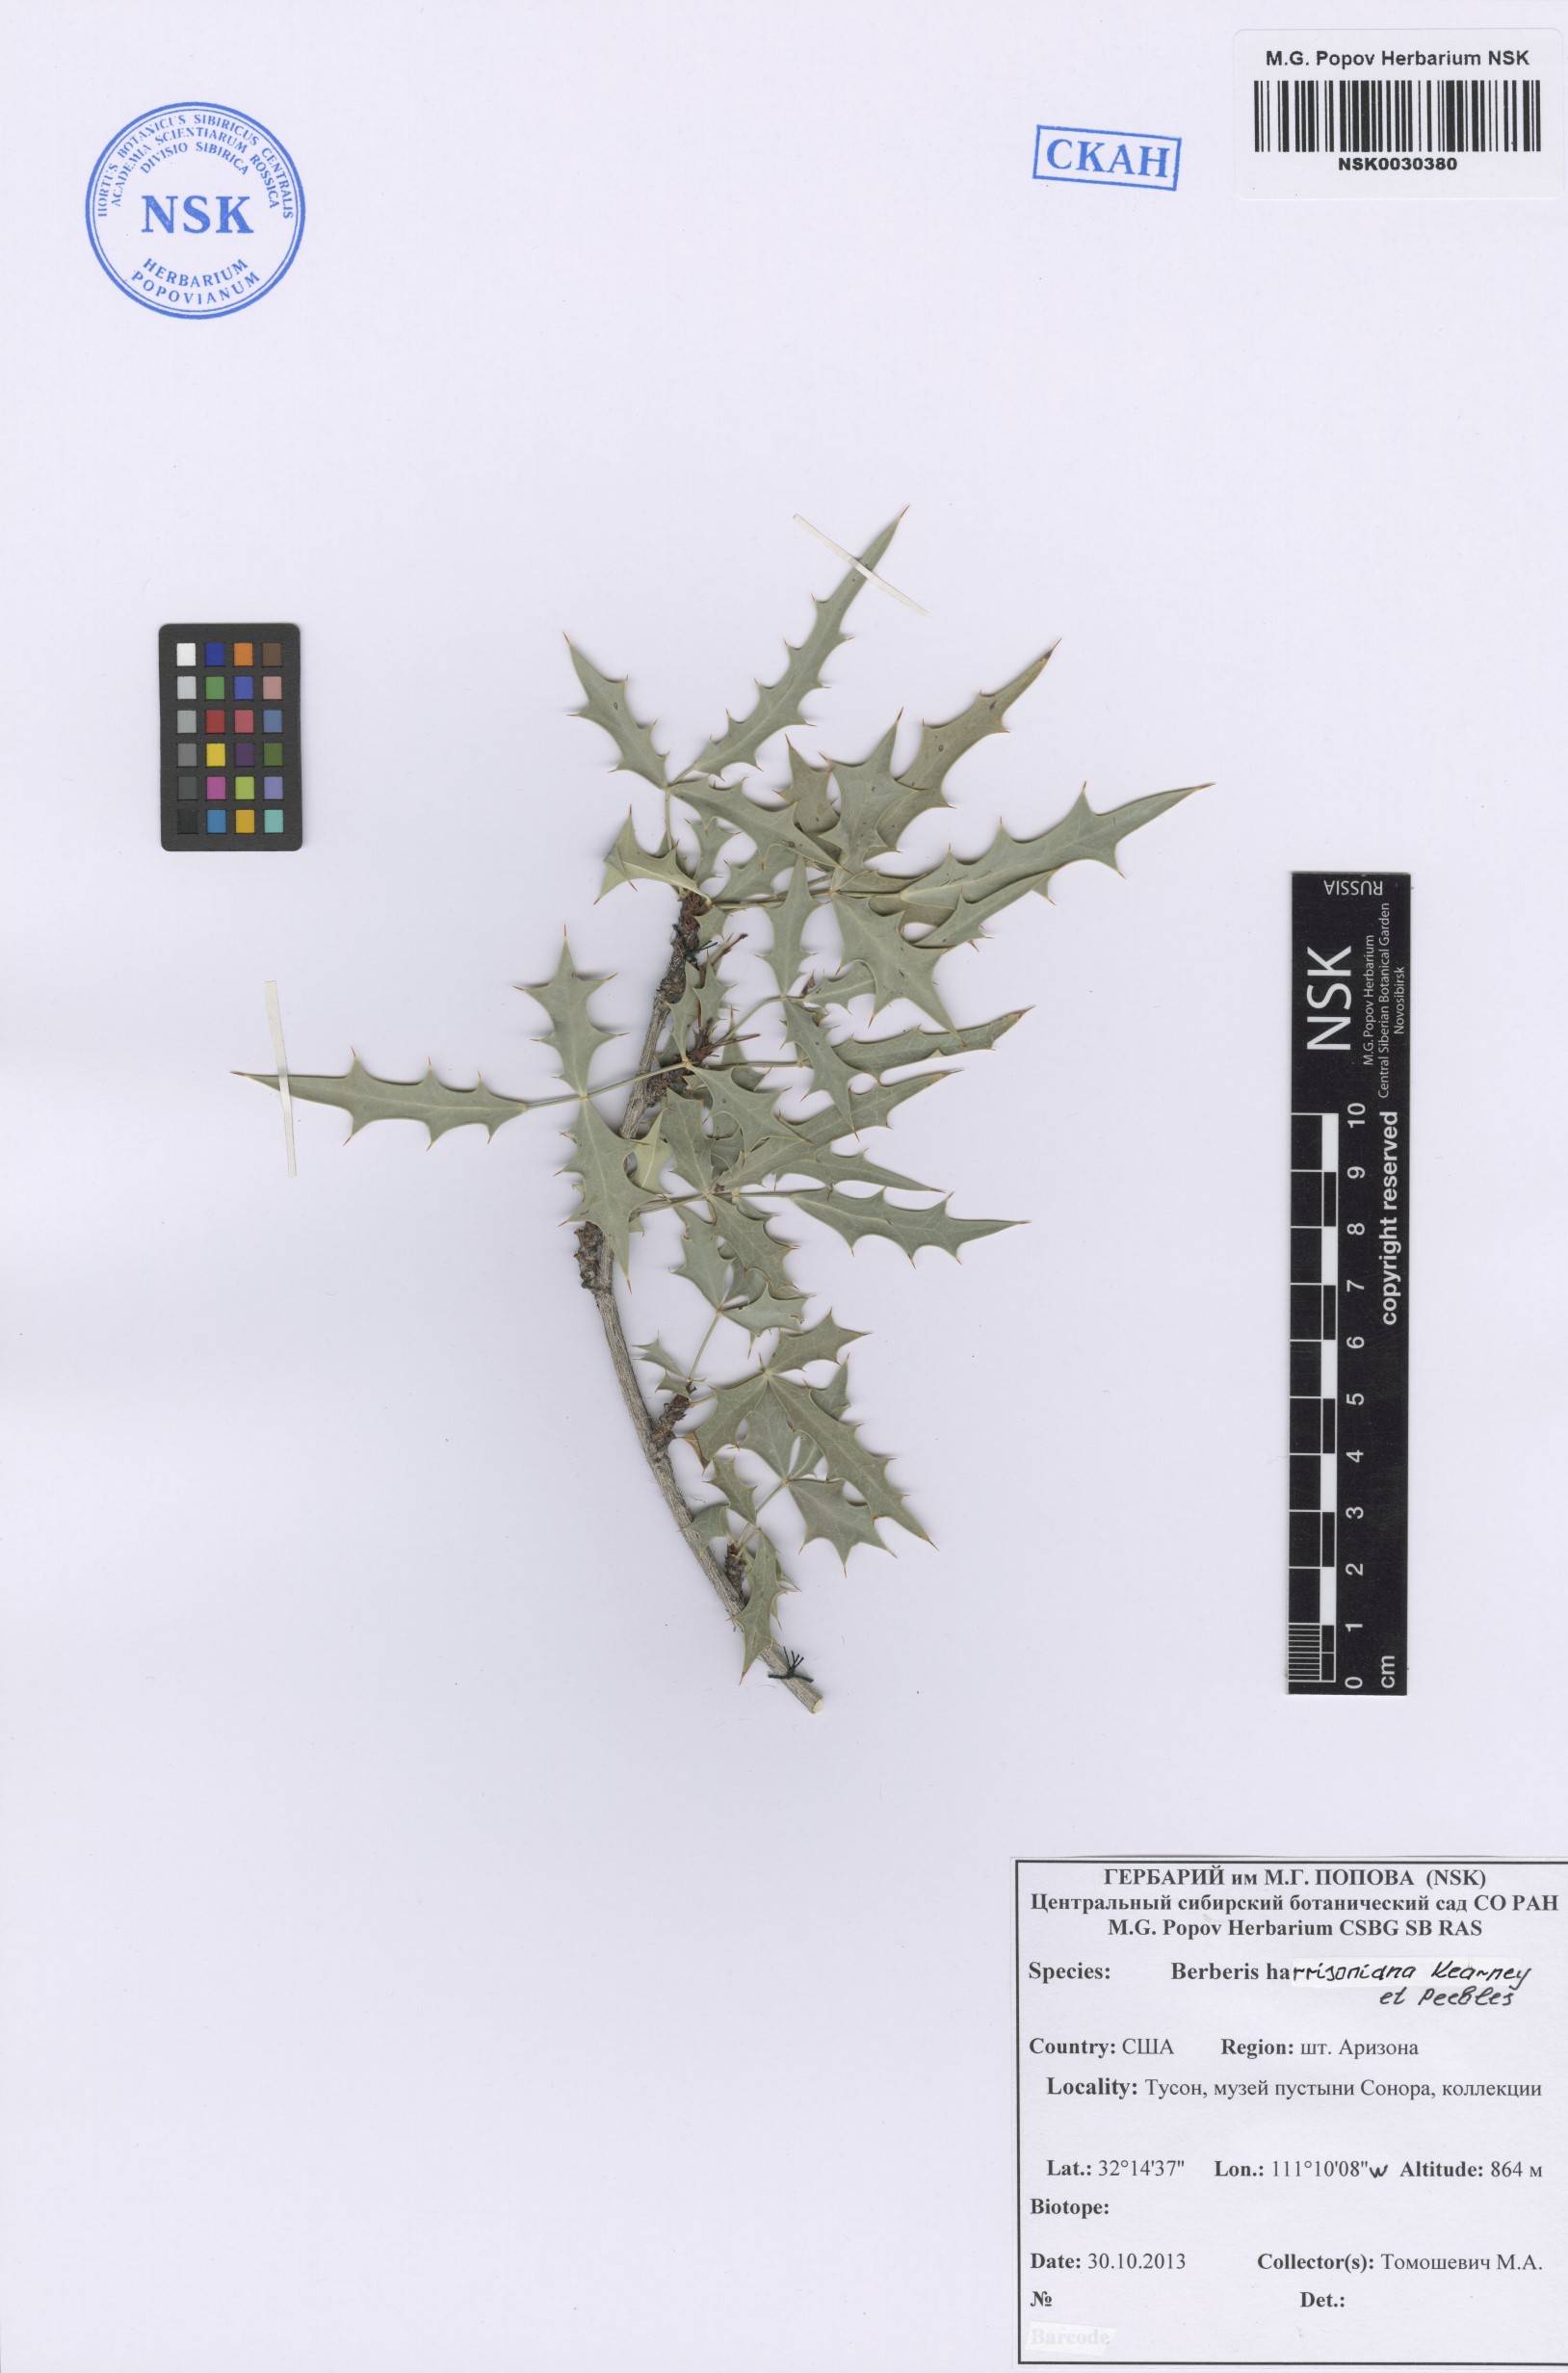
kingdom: Plantae
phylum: Tracheophyta
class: Magnoliopsida
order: Ranunculales
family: Berberidaceae
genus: Mahonia
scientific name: Mahonia harrisoniana
